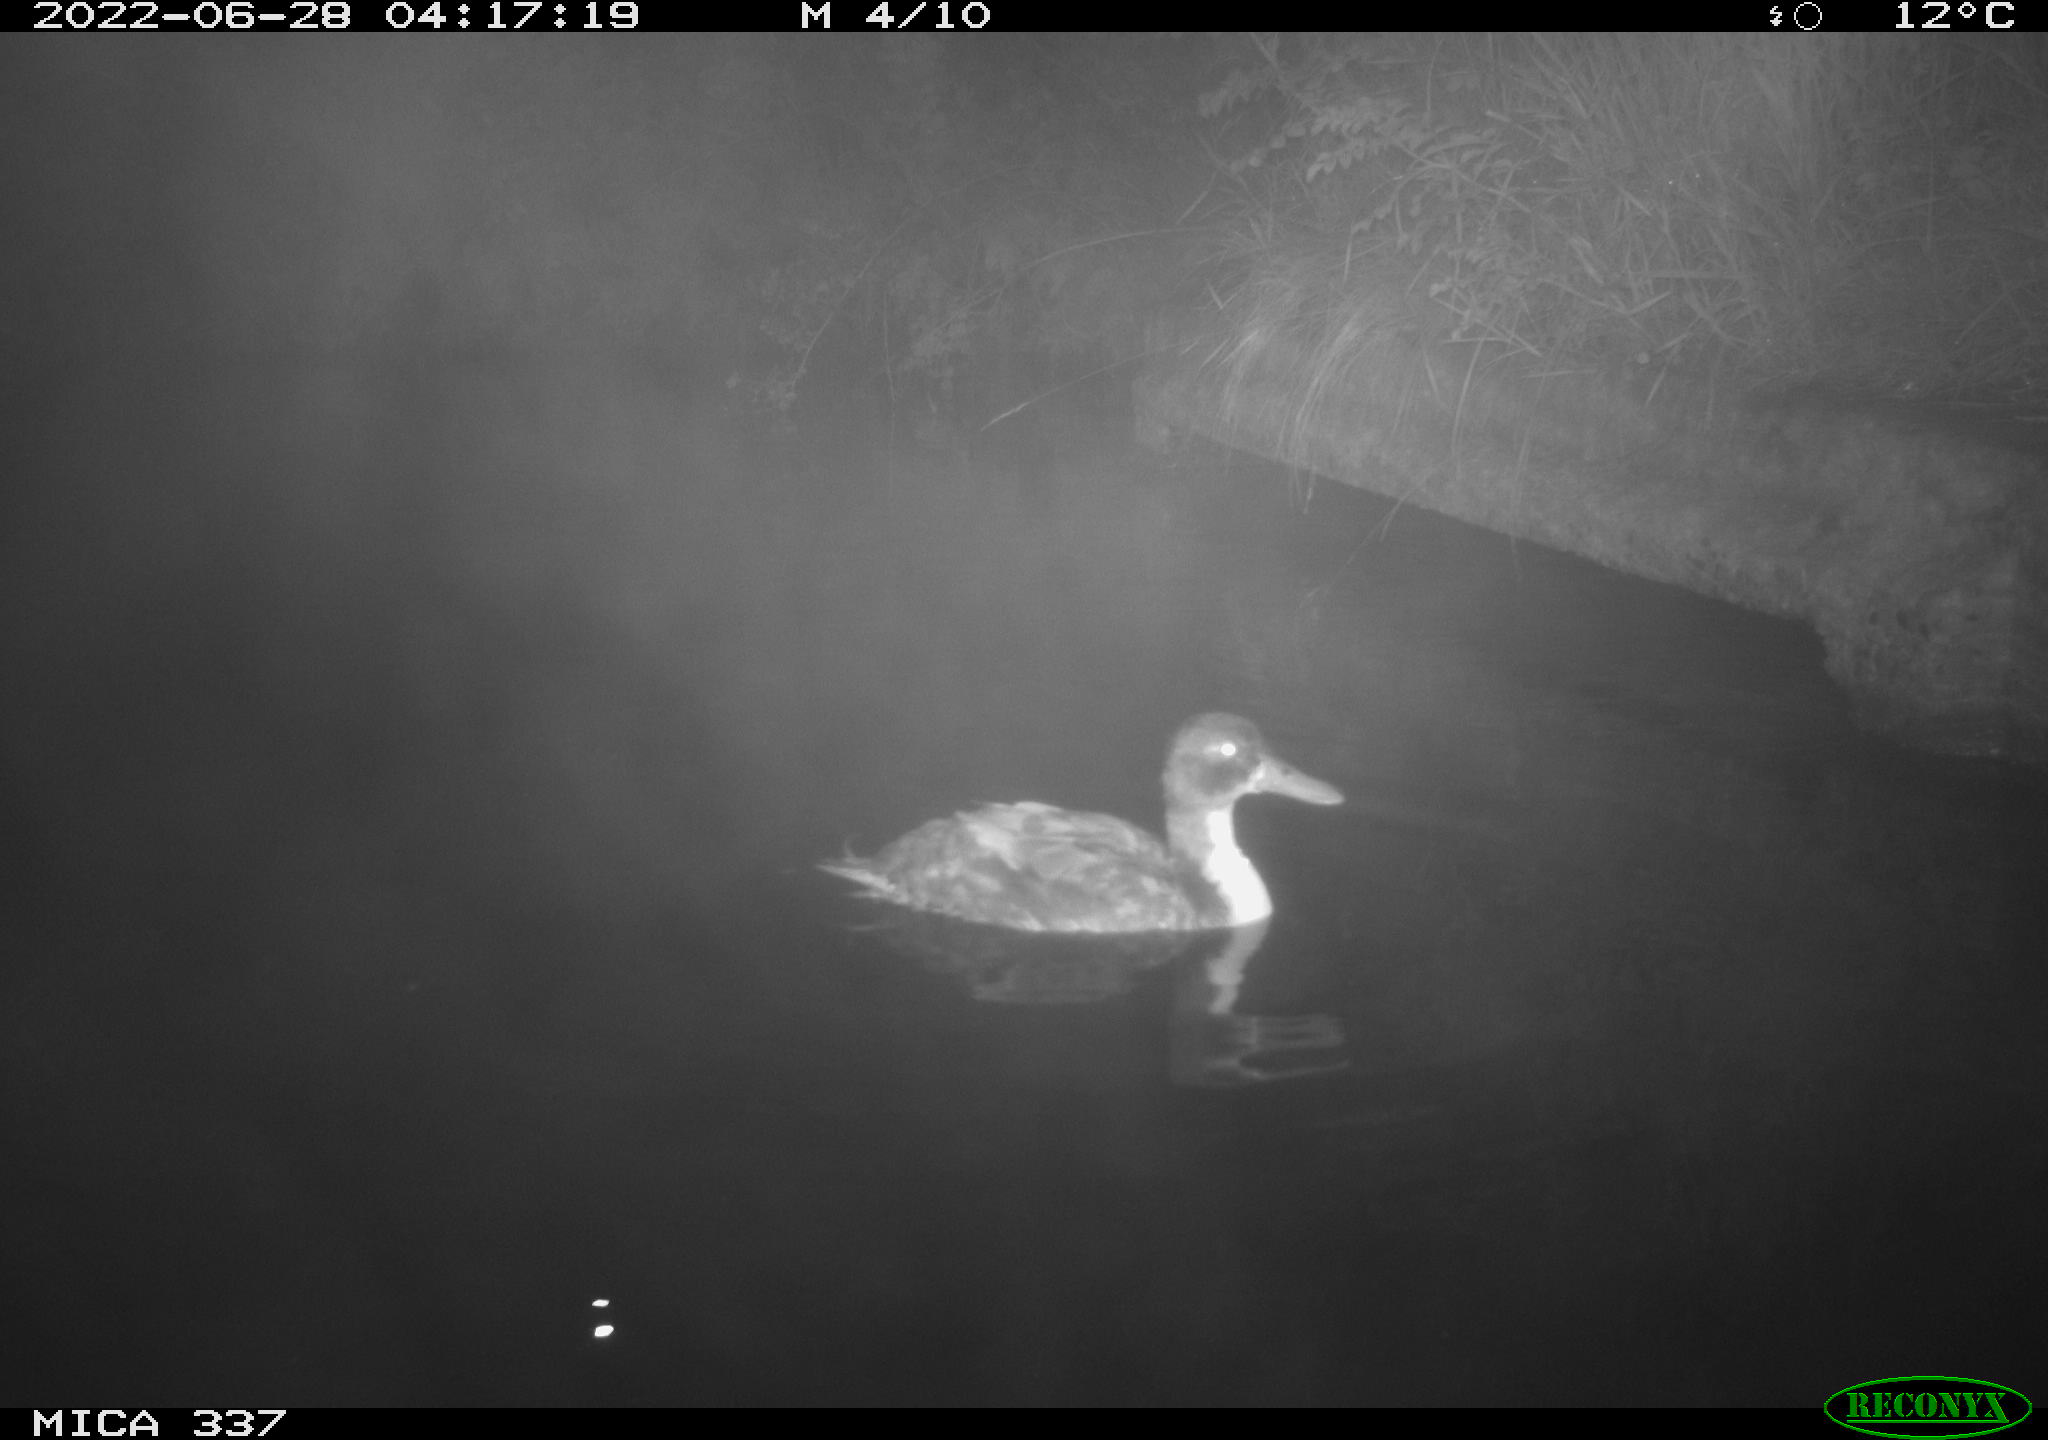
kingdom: Animalia
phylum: Chordata
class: Aves
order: Anseriformes
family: Anatidae
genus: Anas
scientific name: Anas platyrhynchos
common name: Mallard
